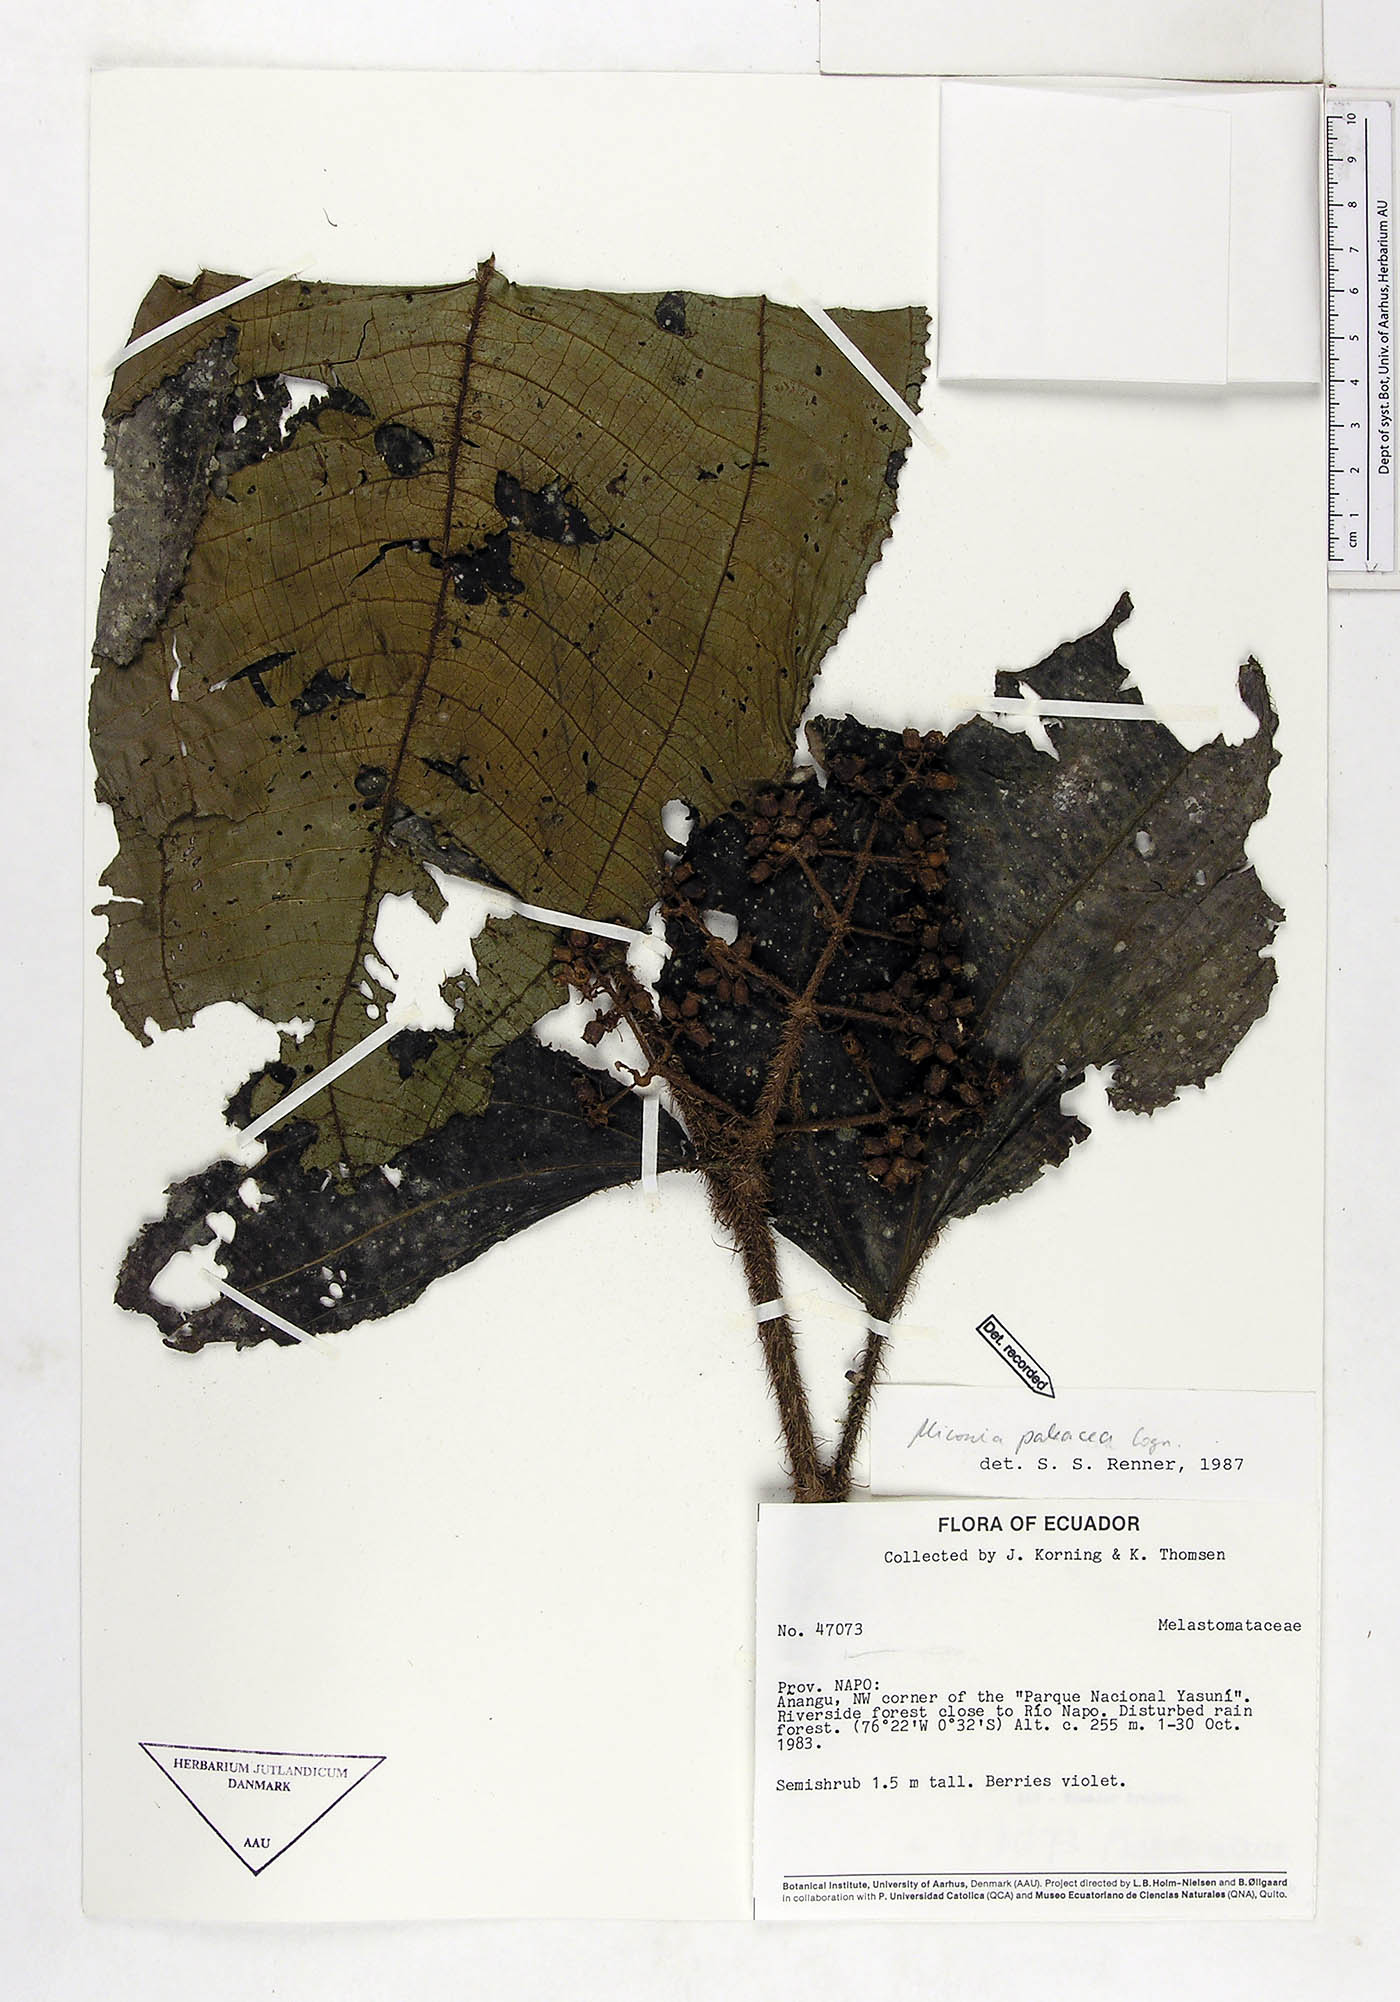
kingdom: Plantae
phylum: Tracheophyta
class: Magnoliopsida
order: Myrtales
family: Melastomataceae
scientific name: Melastomataceae
